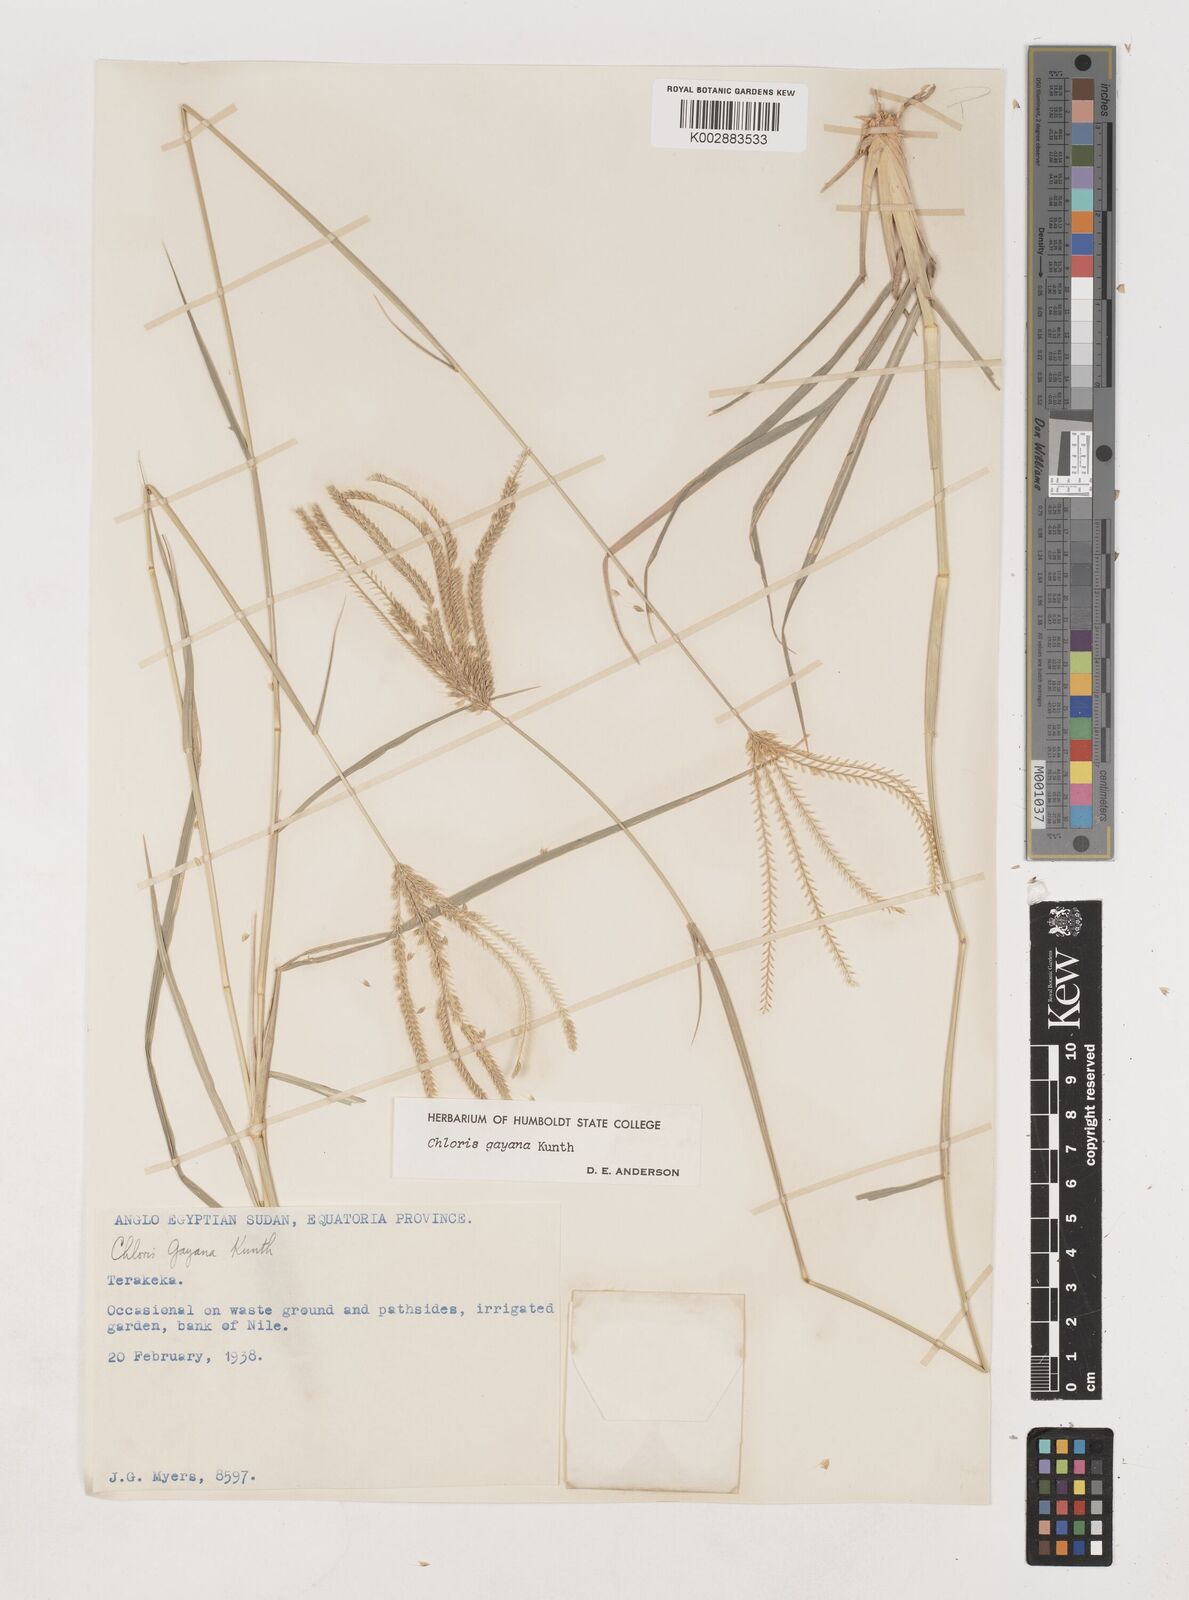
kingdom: Plantae
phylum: Tracheophyta
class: Liliopsida
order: Poales
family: Poaceae
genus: Chloris
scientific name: Chloris gayana
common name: Rhodes grass
